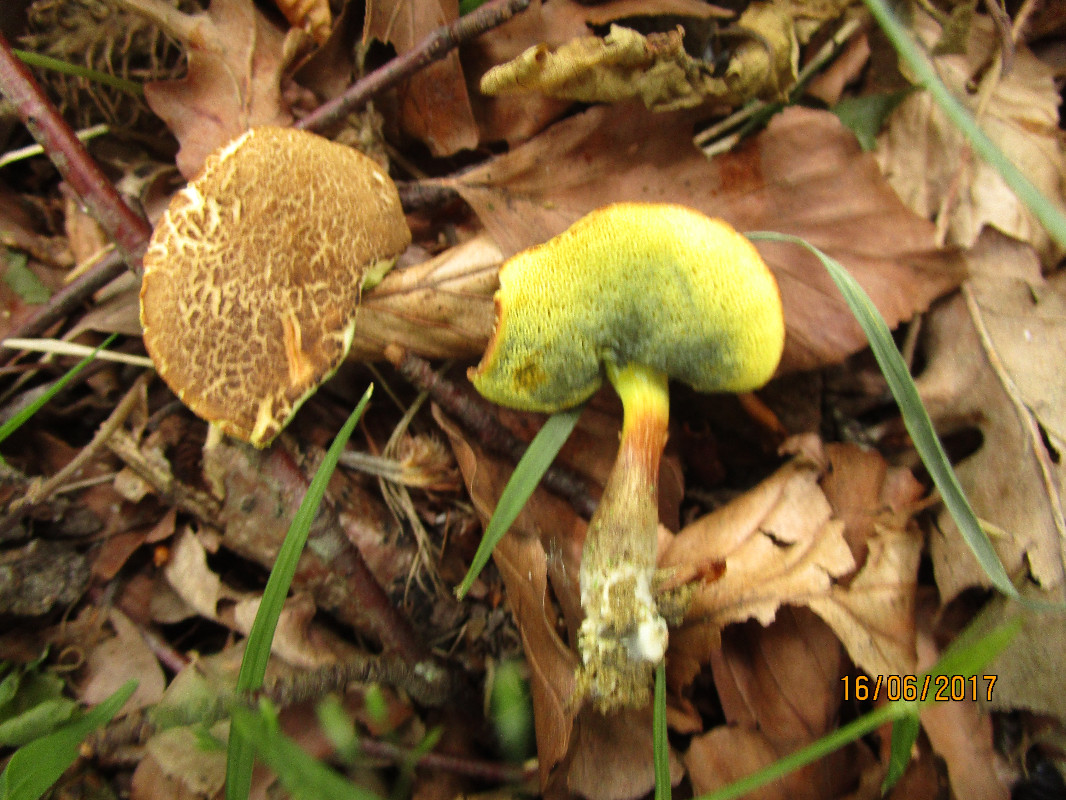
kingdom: Fungi
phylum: Basidiomycota
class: Agaricomycetes
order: Boletales
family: Boletaceae
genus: Xerocomellus
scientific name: Xerocomellus chrysenteron
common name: rødsprukken rørhat
